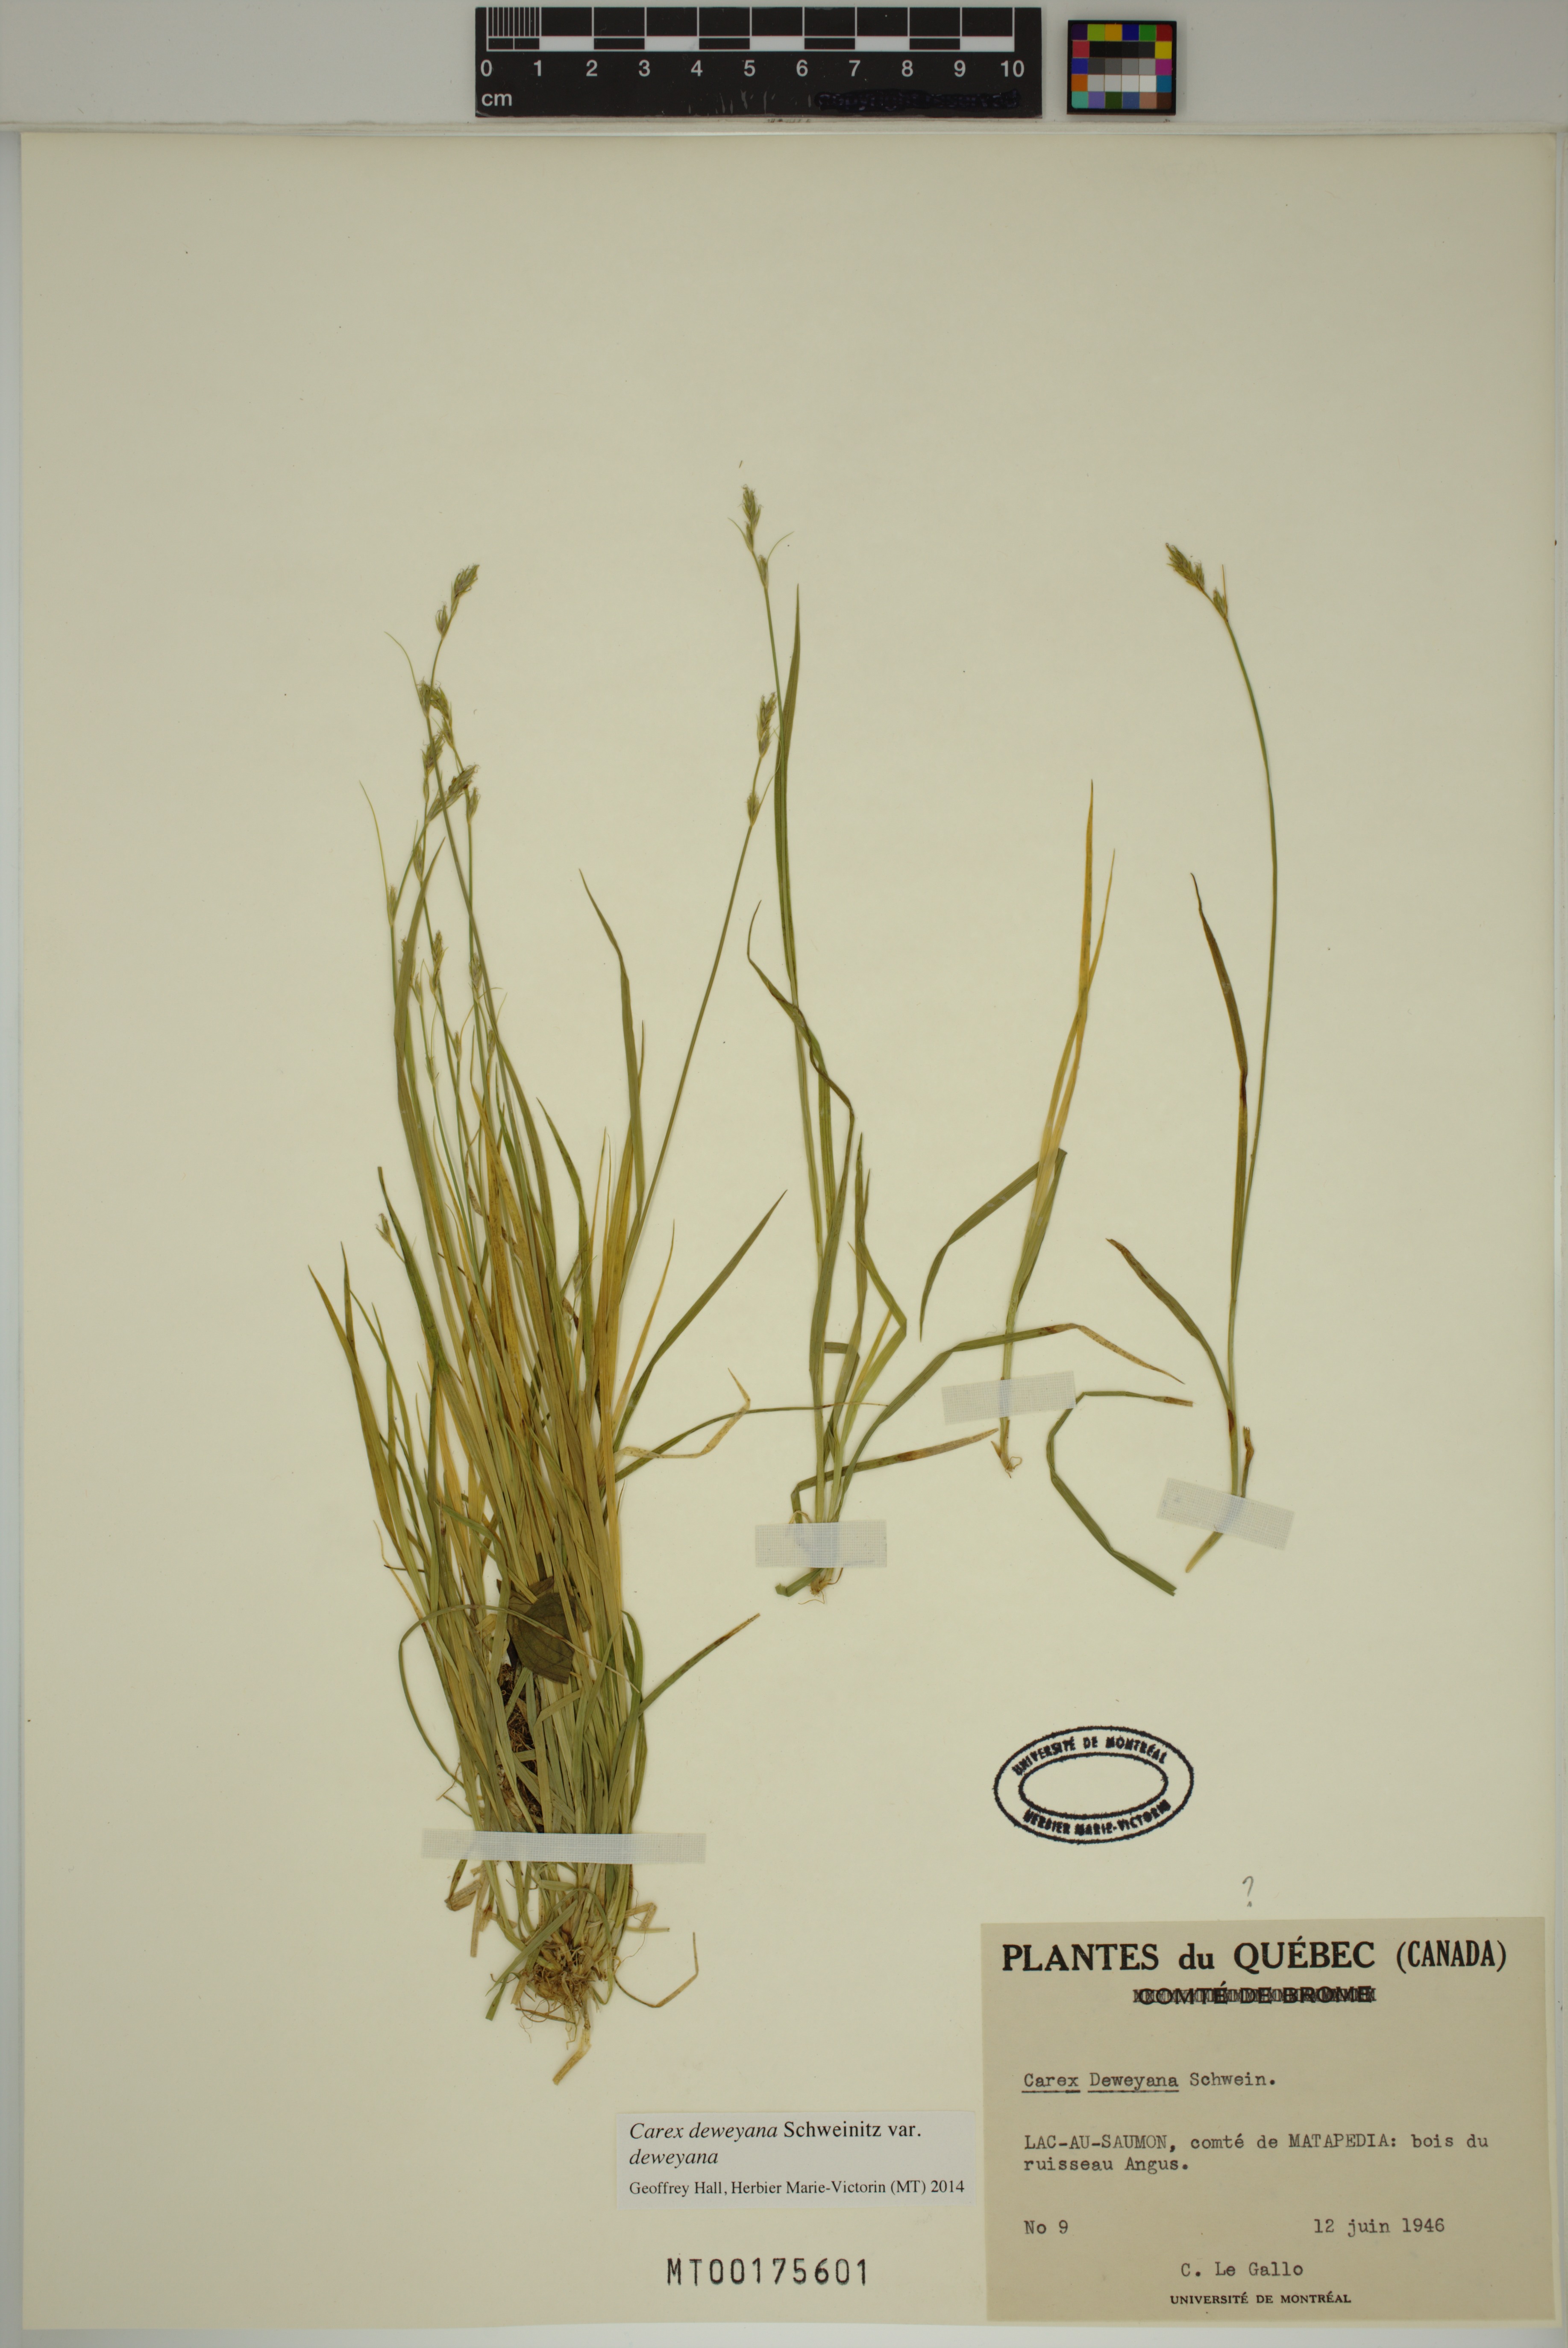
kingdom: Plantae
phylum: Tracheophyta
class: Liliopsida
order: Poales
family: Cyperaceae
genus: Carex
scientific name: Carex deweyana
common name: Dewey's sedge
